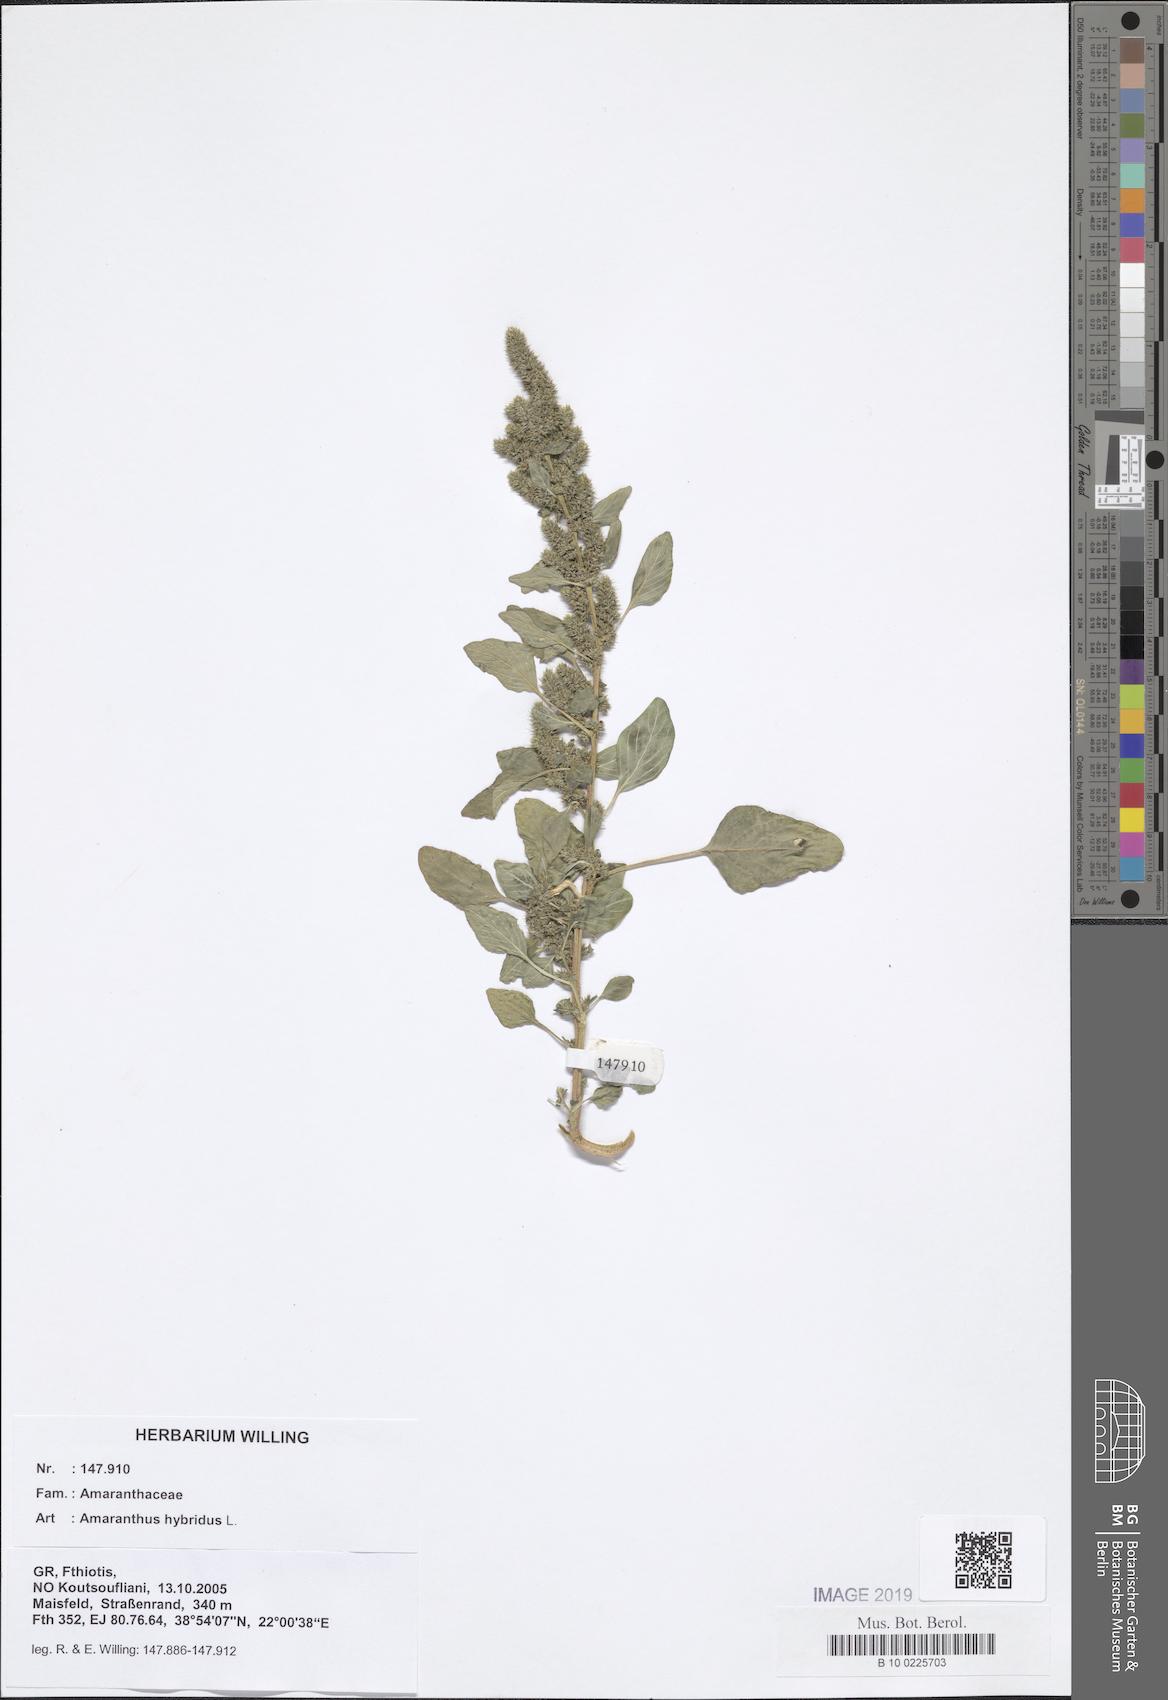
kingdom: Plantae
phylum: Tracheophyta
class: Magnoliopsida
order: Caryophyllales
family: Amaranthaceae
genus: Amaranthus
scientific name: Amaranthus hybridus
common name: Green amaranth
